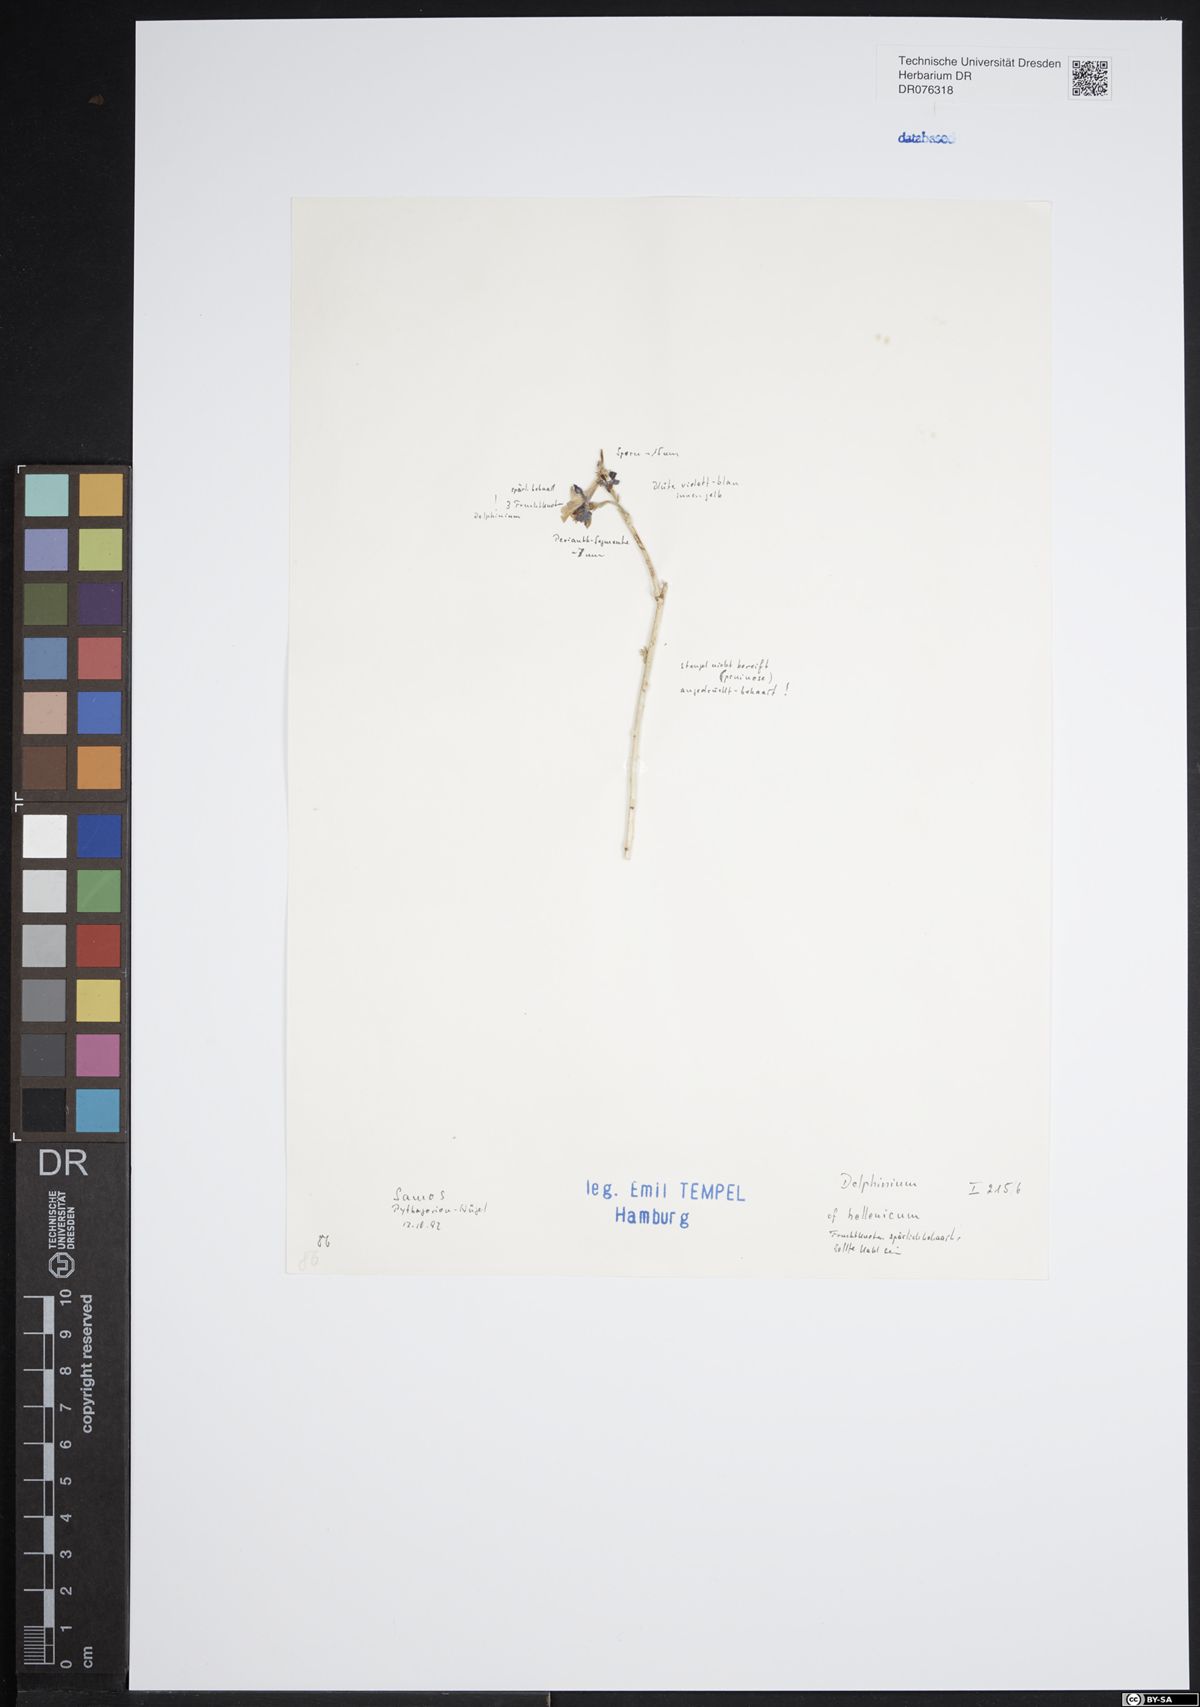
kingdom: Plantae
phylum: Tracheophyta
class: Magnoliopsida
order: Ranunculales
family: Ranunculaceae
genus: Delphinium
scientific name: Delphinium hellenicum
